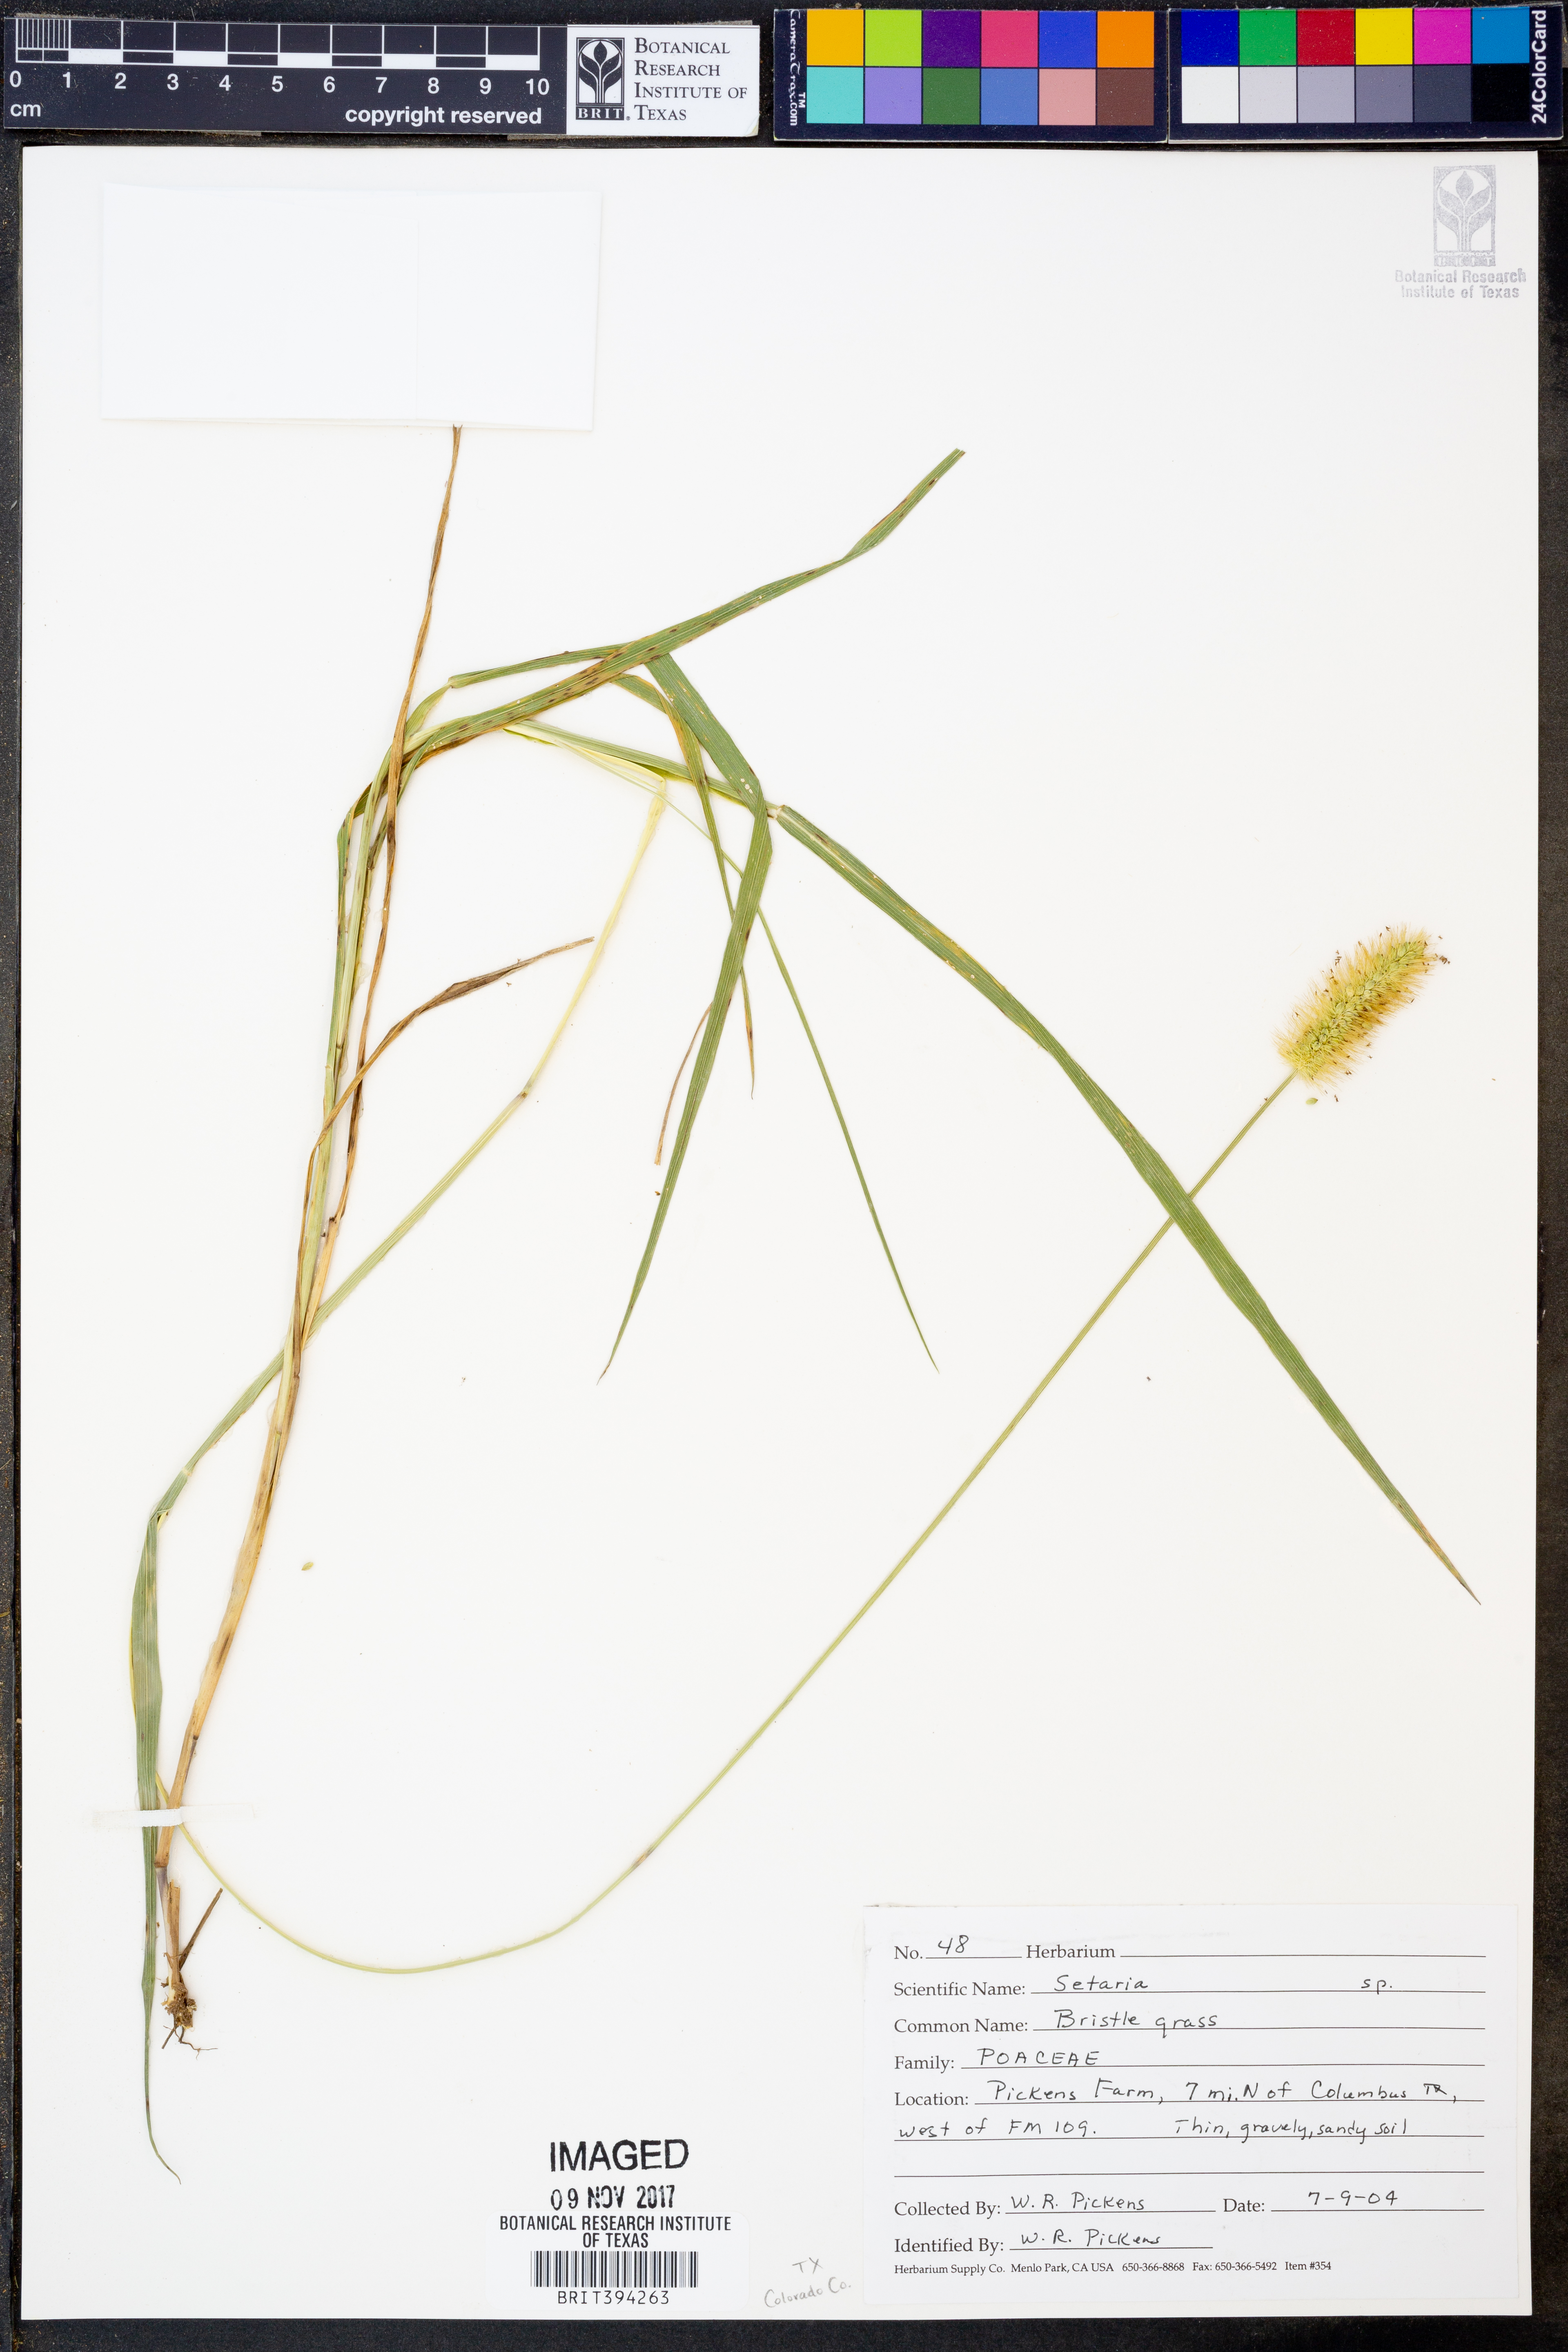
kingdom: Plantae
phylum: Tracheophyta
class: Liliopsida
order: Poales
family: Poaceae
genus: Setaria
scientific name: Setaria
